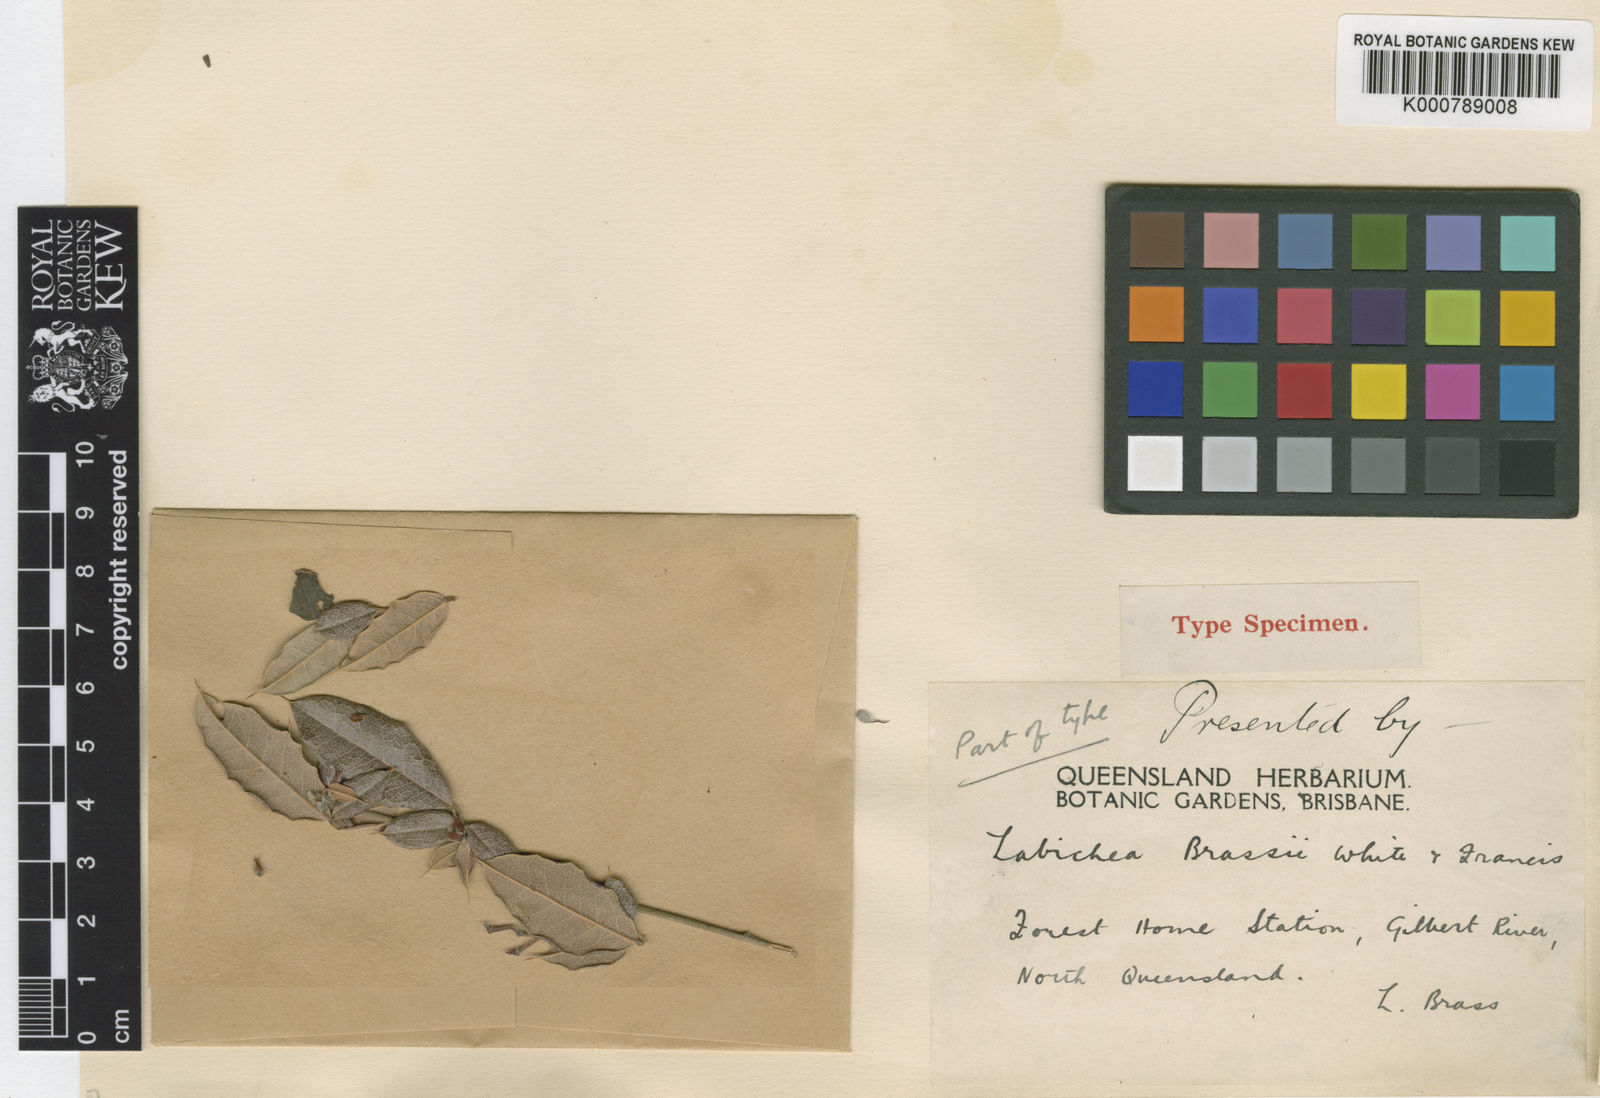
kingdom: Plantae
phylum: Tracheophyta
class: Magnoliopsida
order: Fabales
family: Fabaceae
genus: Labichea
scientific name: Labichea brassii
